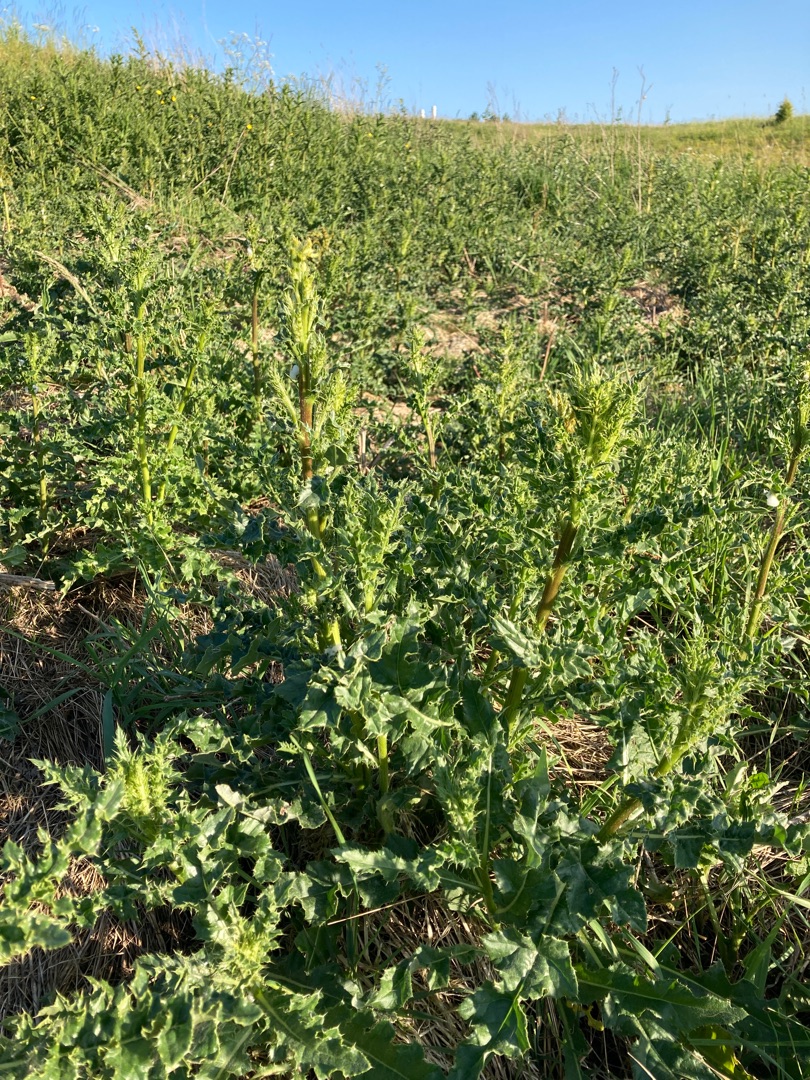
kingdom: Plantae
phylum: Tracheophyta
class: Magnoliopsida
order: Asterales
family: Asteraceae
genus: Cirsium
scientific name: Cirsium arvense
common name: Ager-tidsel
